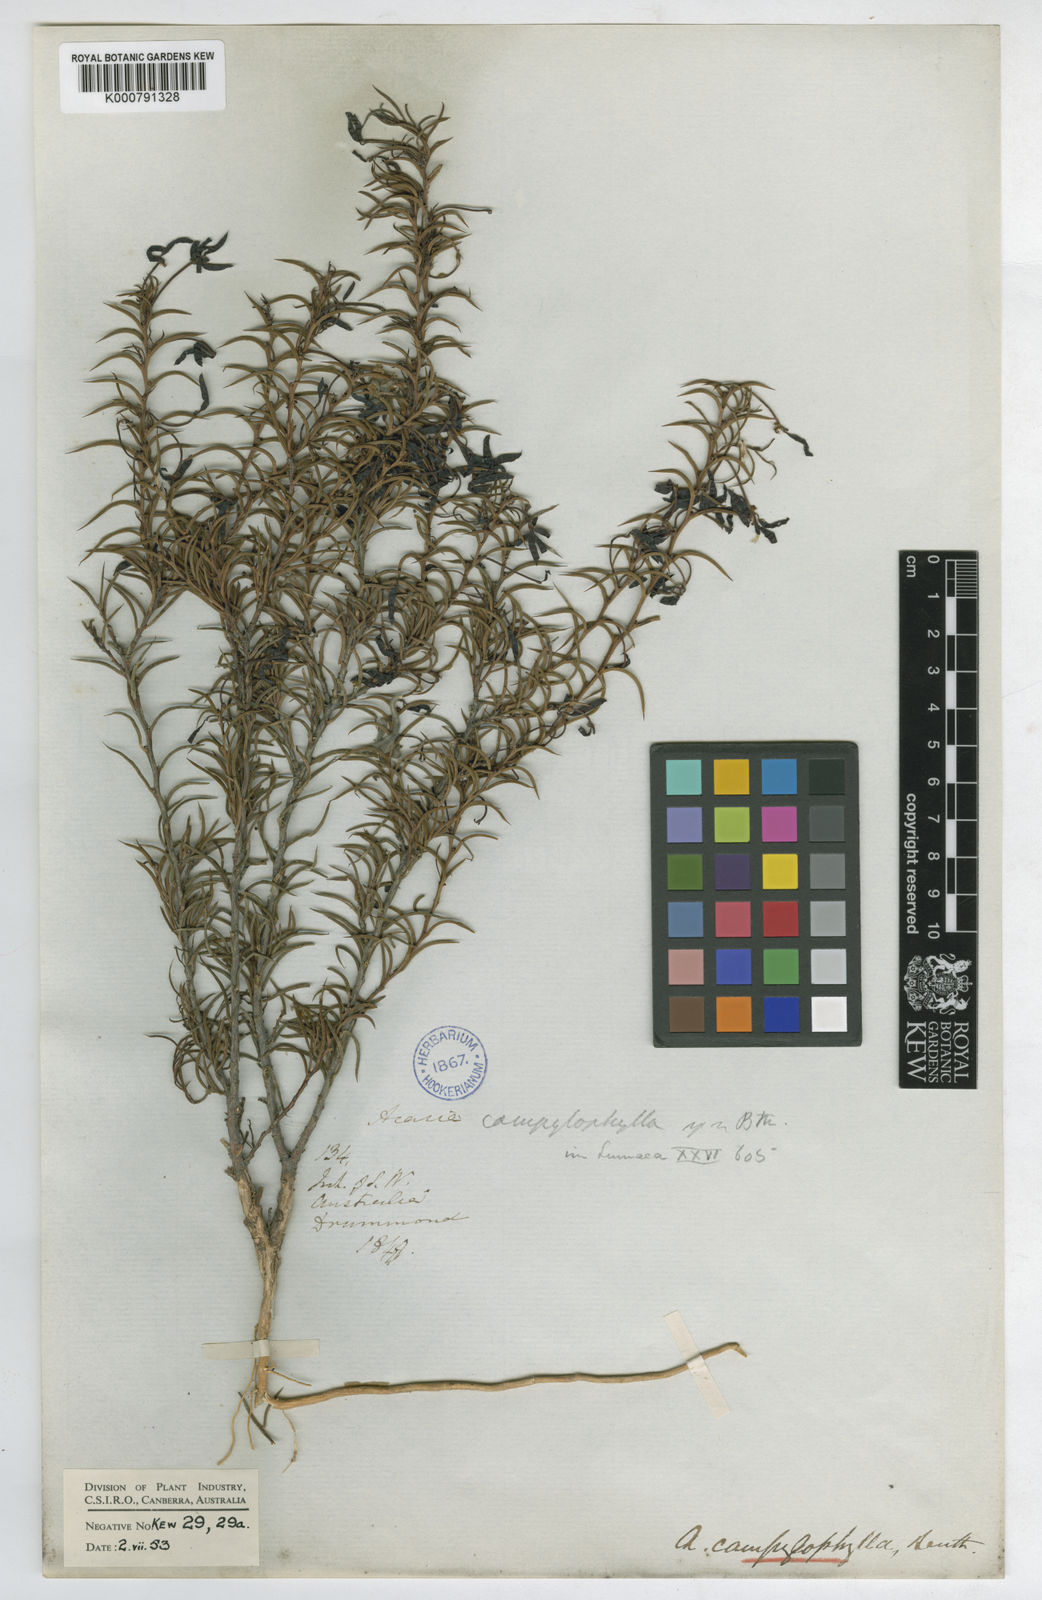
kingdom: Plantae
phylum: Tracheophyta
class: Magnoliopsida
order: Fabales
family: Fabaceae
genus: Acacia
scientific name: Acacia campylophylla
